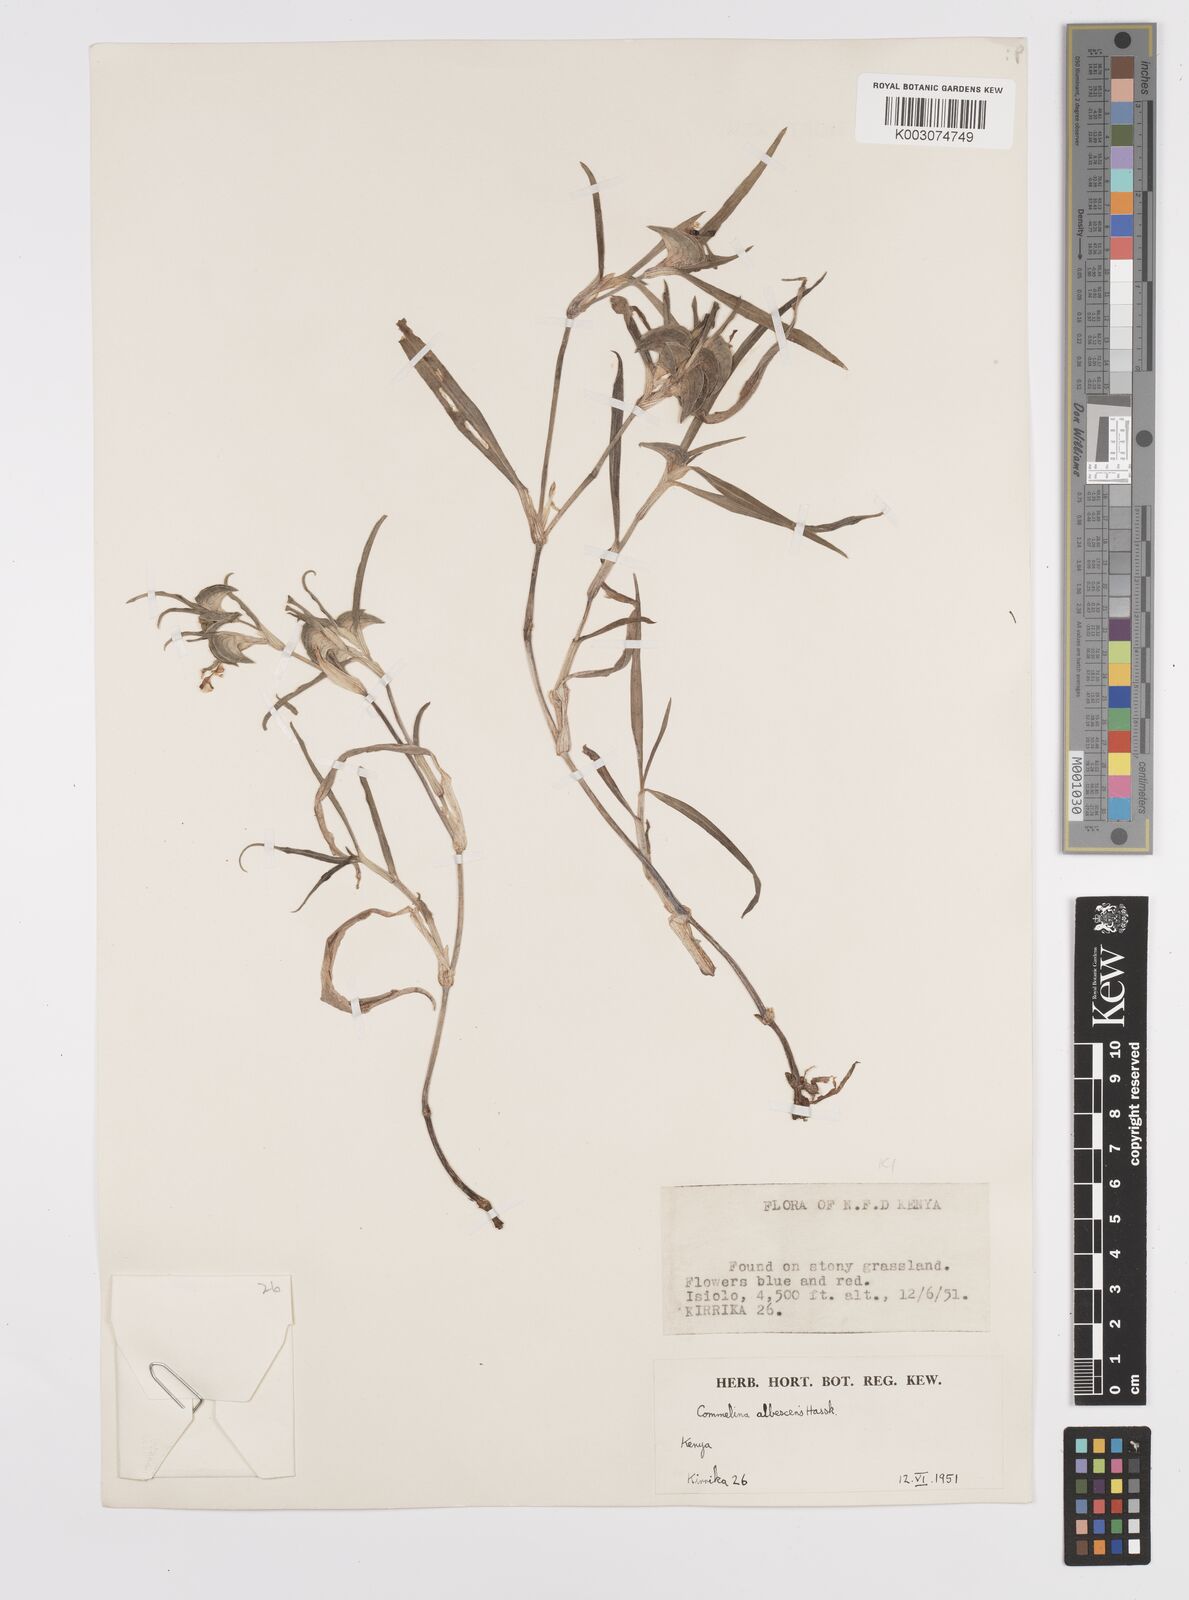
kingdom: Plantae
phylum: Tracheophyta
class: Liliopsida
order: Commelinales
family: Commelinaceae
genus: Commelina
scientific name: Commelina albescens
